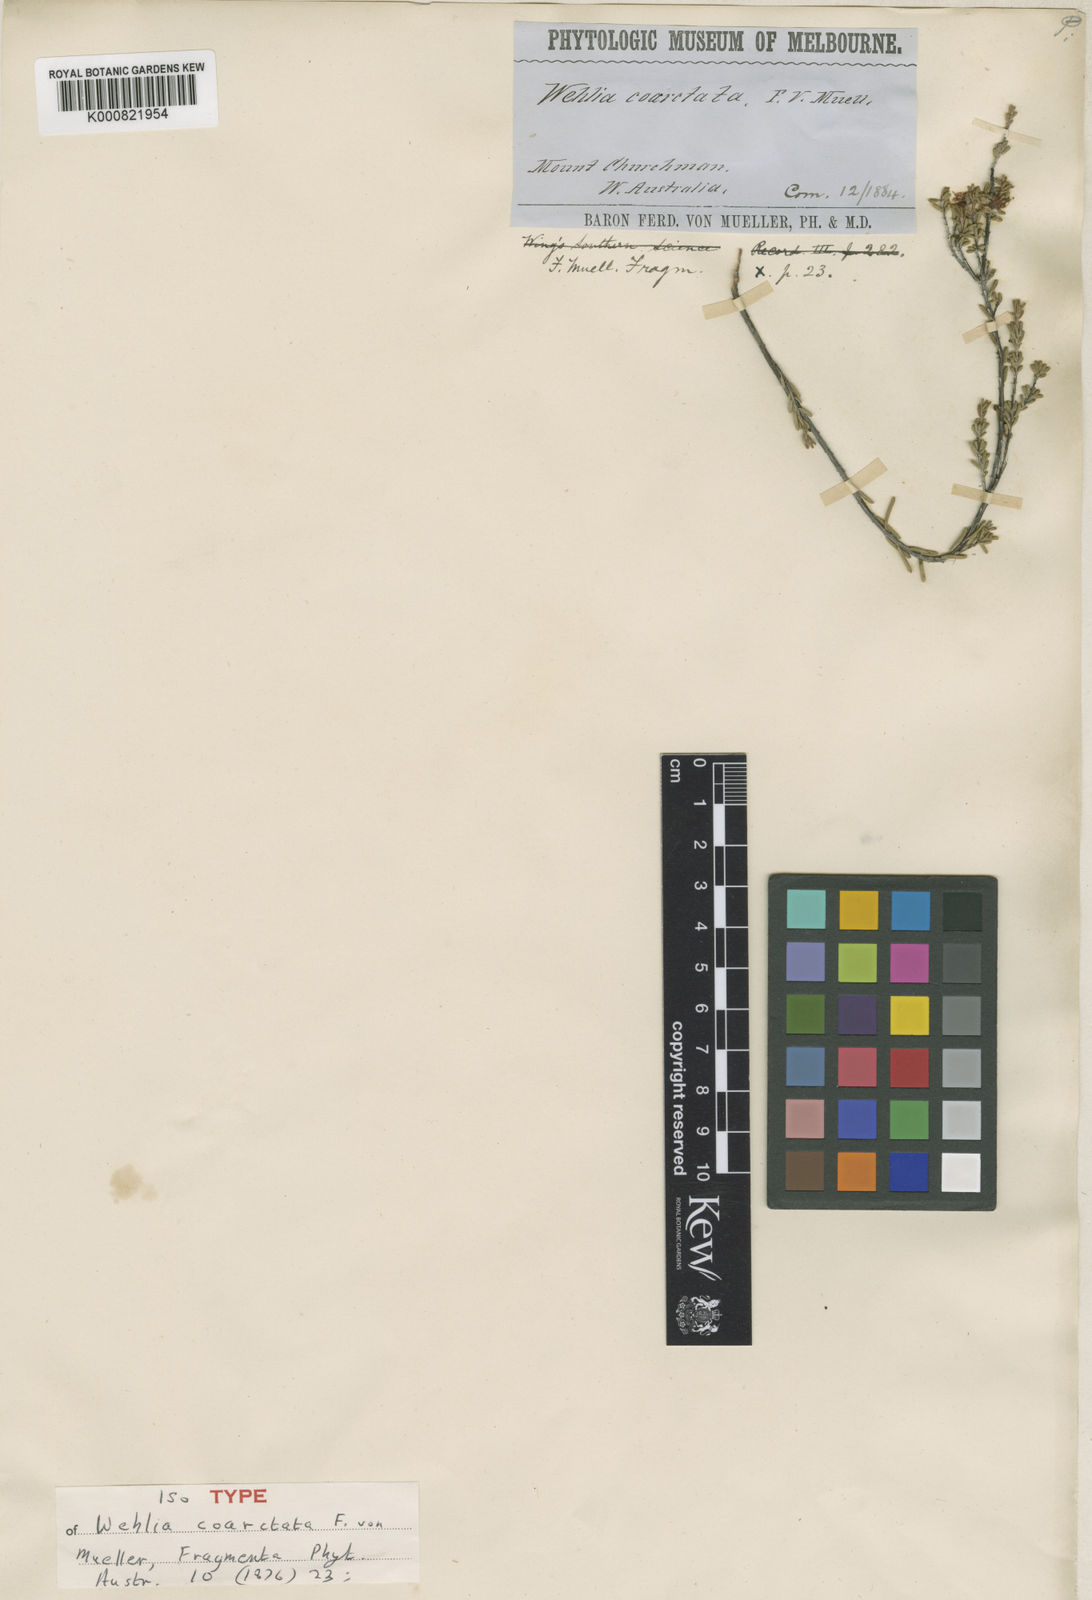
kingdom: Plantae
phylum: Tracheophyta
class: Magnoliopsida
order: Myrtales
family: Myrtaceae
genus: Homalocalyx
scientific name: Homalocalyx coarctatus
